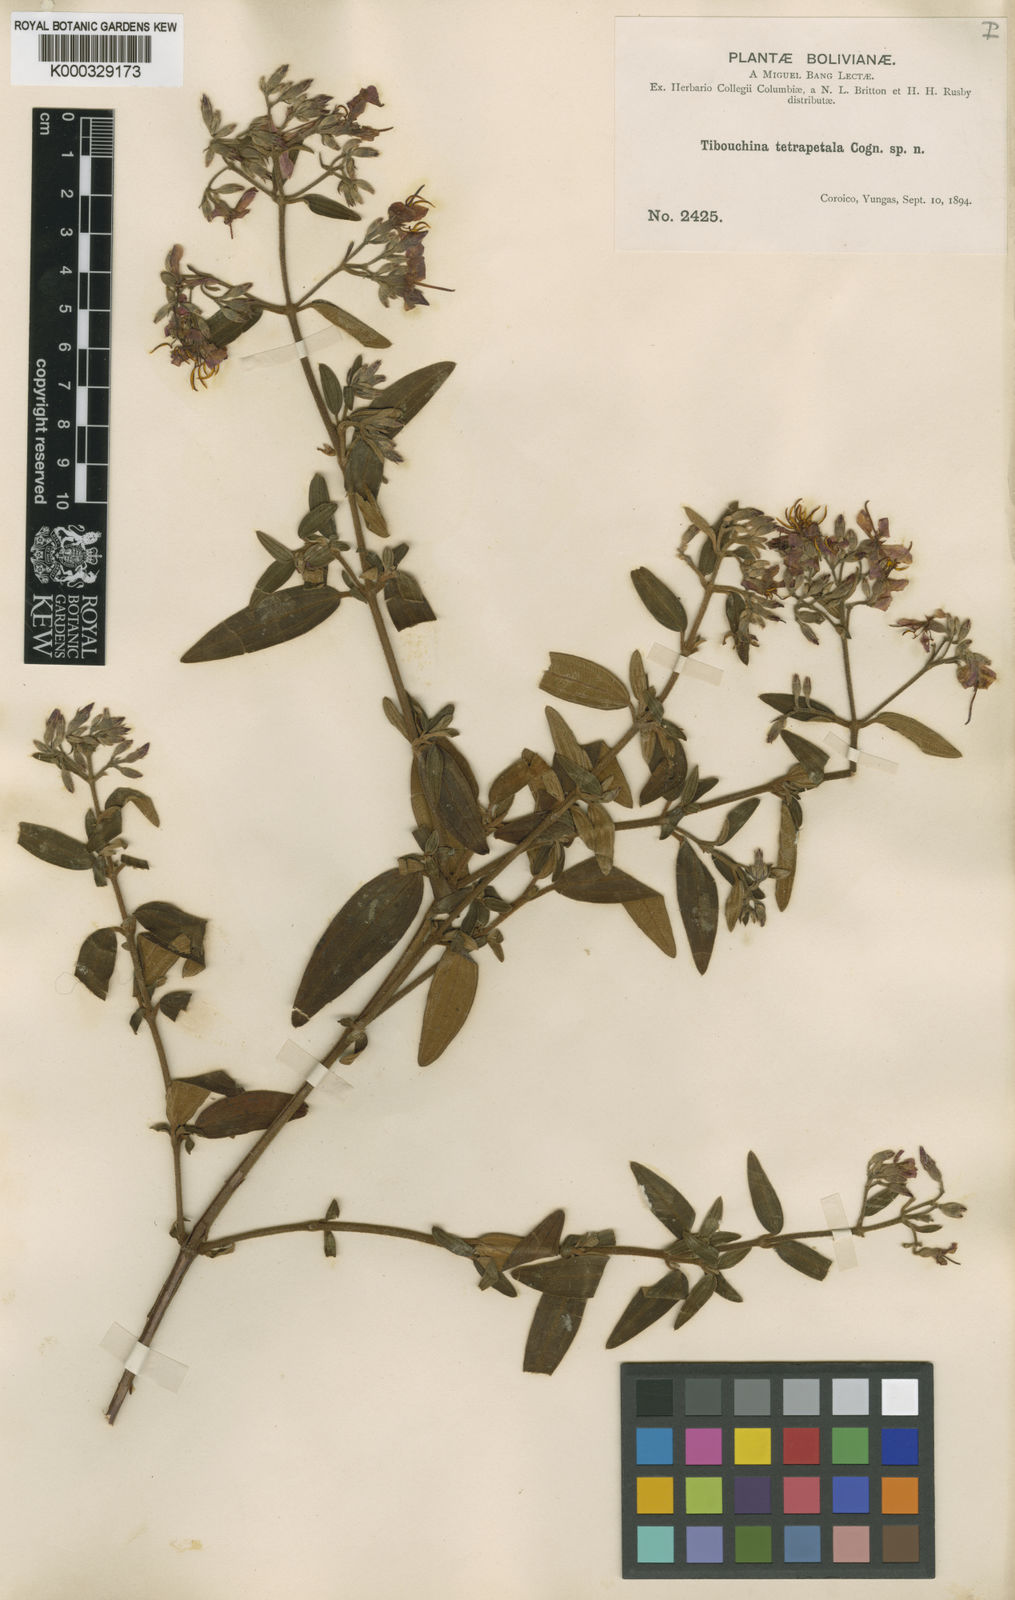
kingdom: Plantae
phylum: Tracheophyta
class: Magnoliopsida
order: Myrtales
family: Melastomataceae
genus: Chaetogastra
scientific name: Chaetogastra tetrapetala
